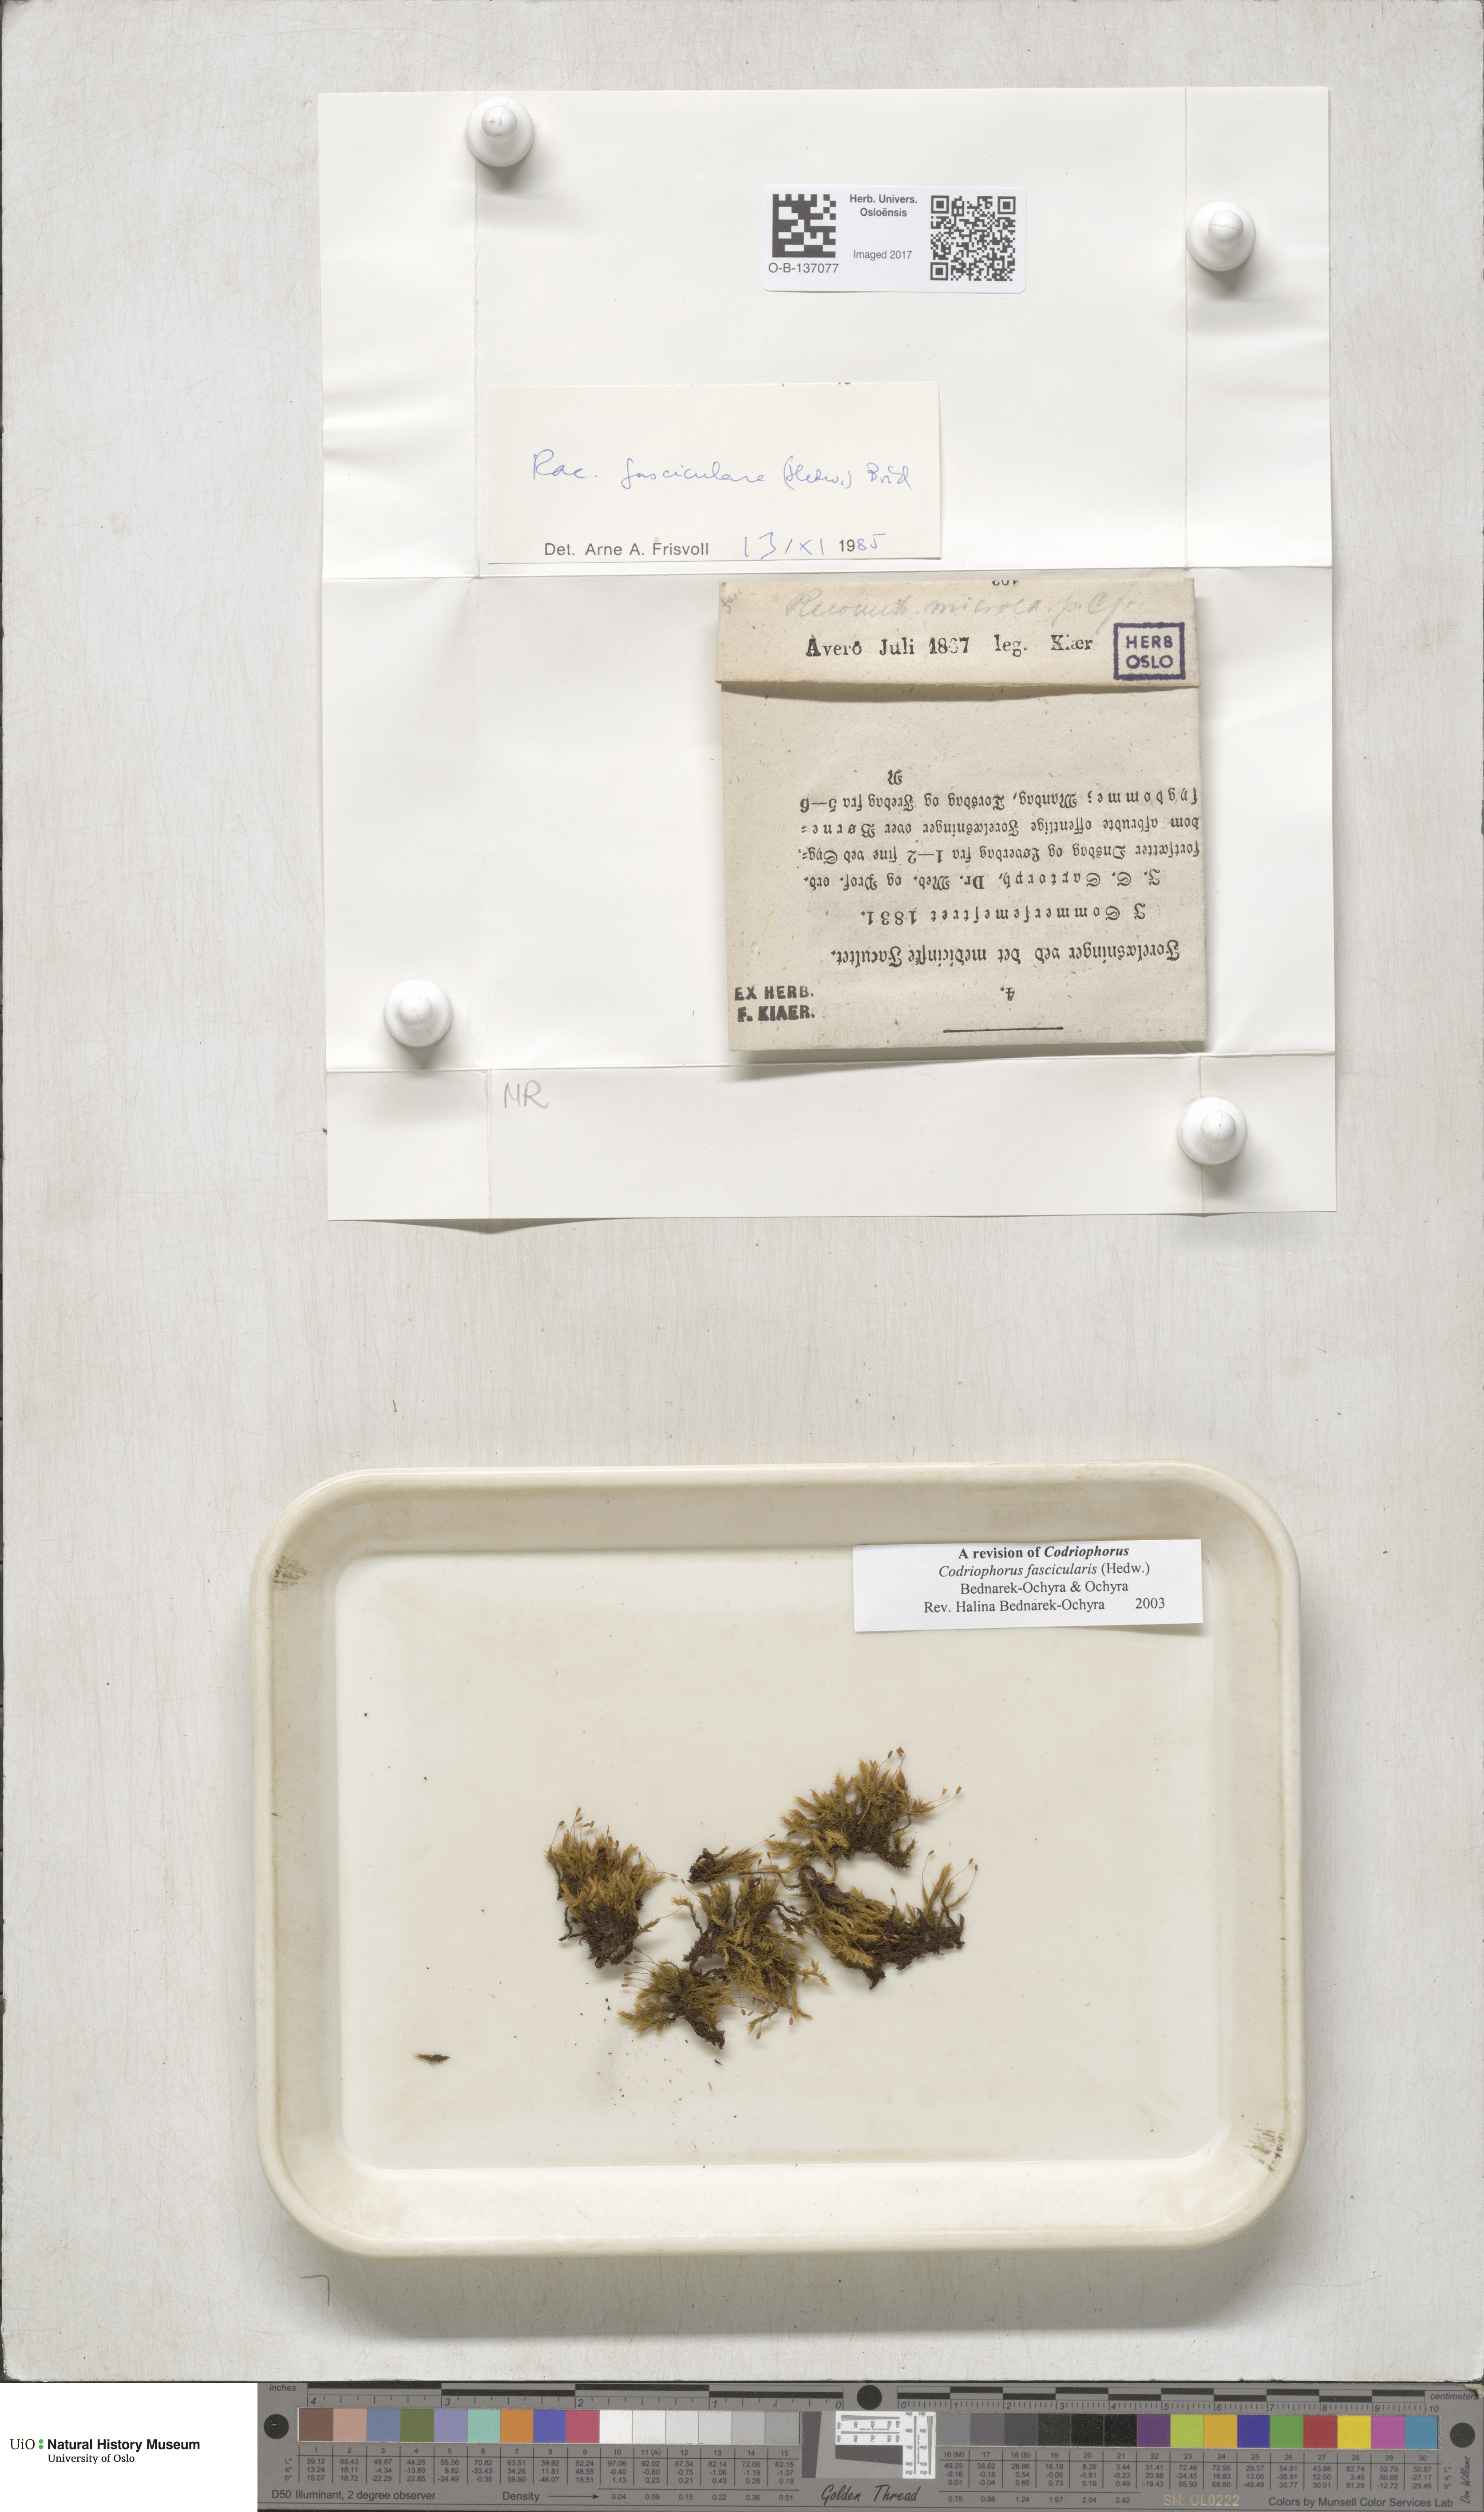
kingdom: Plantae
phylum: Bryophyta
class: Bryopsida
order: Grimmiales
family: Grimmiaceae
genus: Dilutineuron
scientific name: Dilutineuron fasciculare
